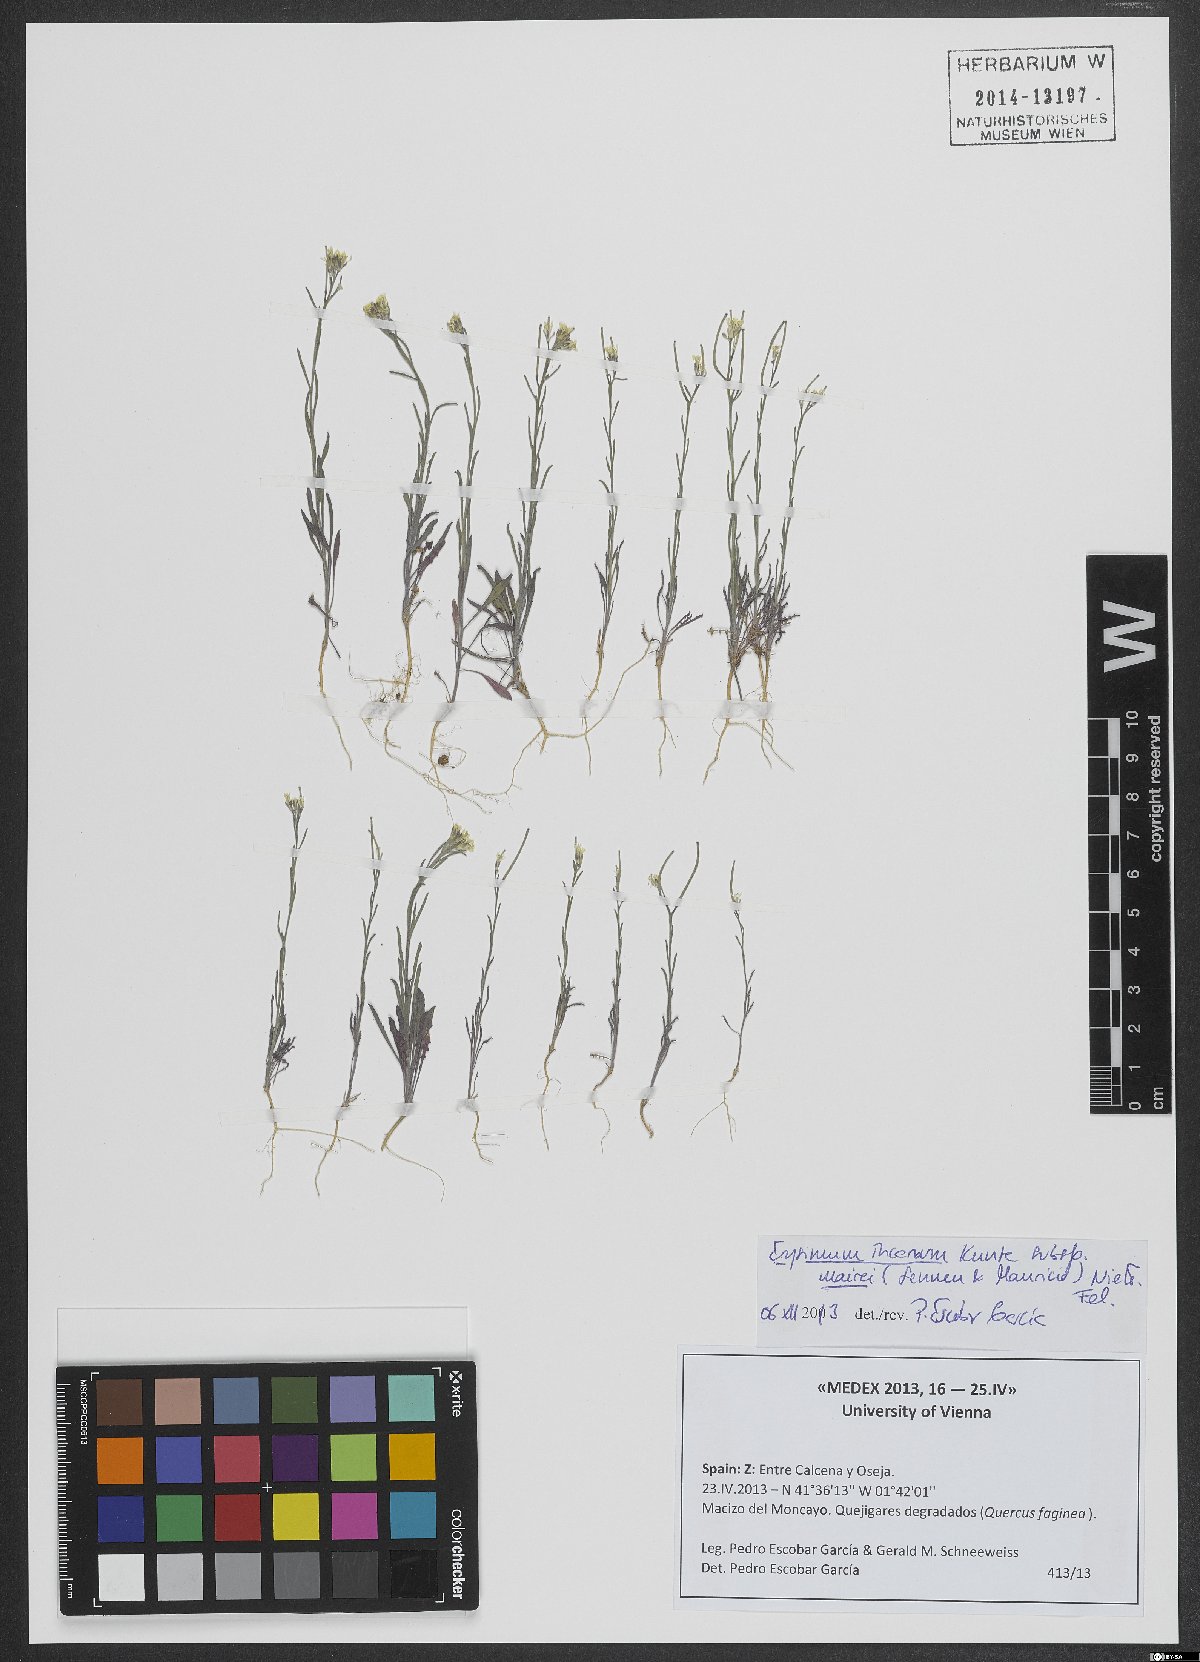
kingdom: Plantae
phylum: Tracheophyta
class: Magnoliopsida
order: Brassicales
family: Brassicaceae
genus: Erysimum
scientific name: Erysimum incanum
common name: Hoary treacle mustard
